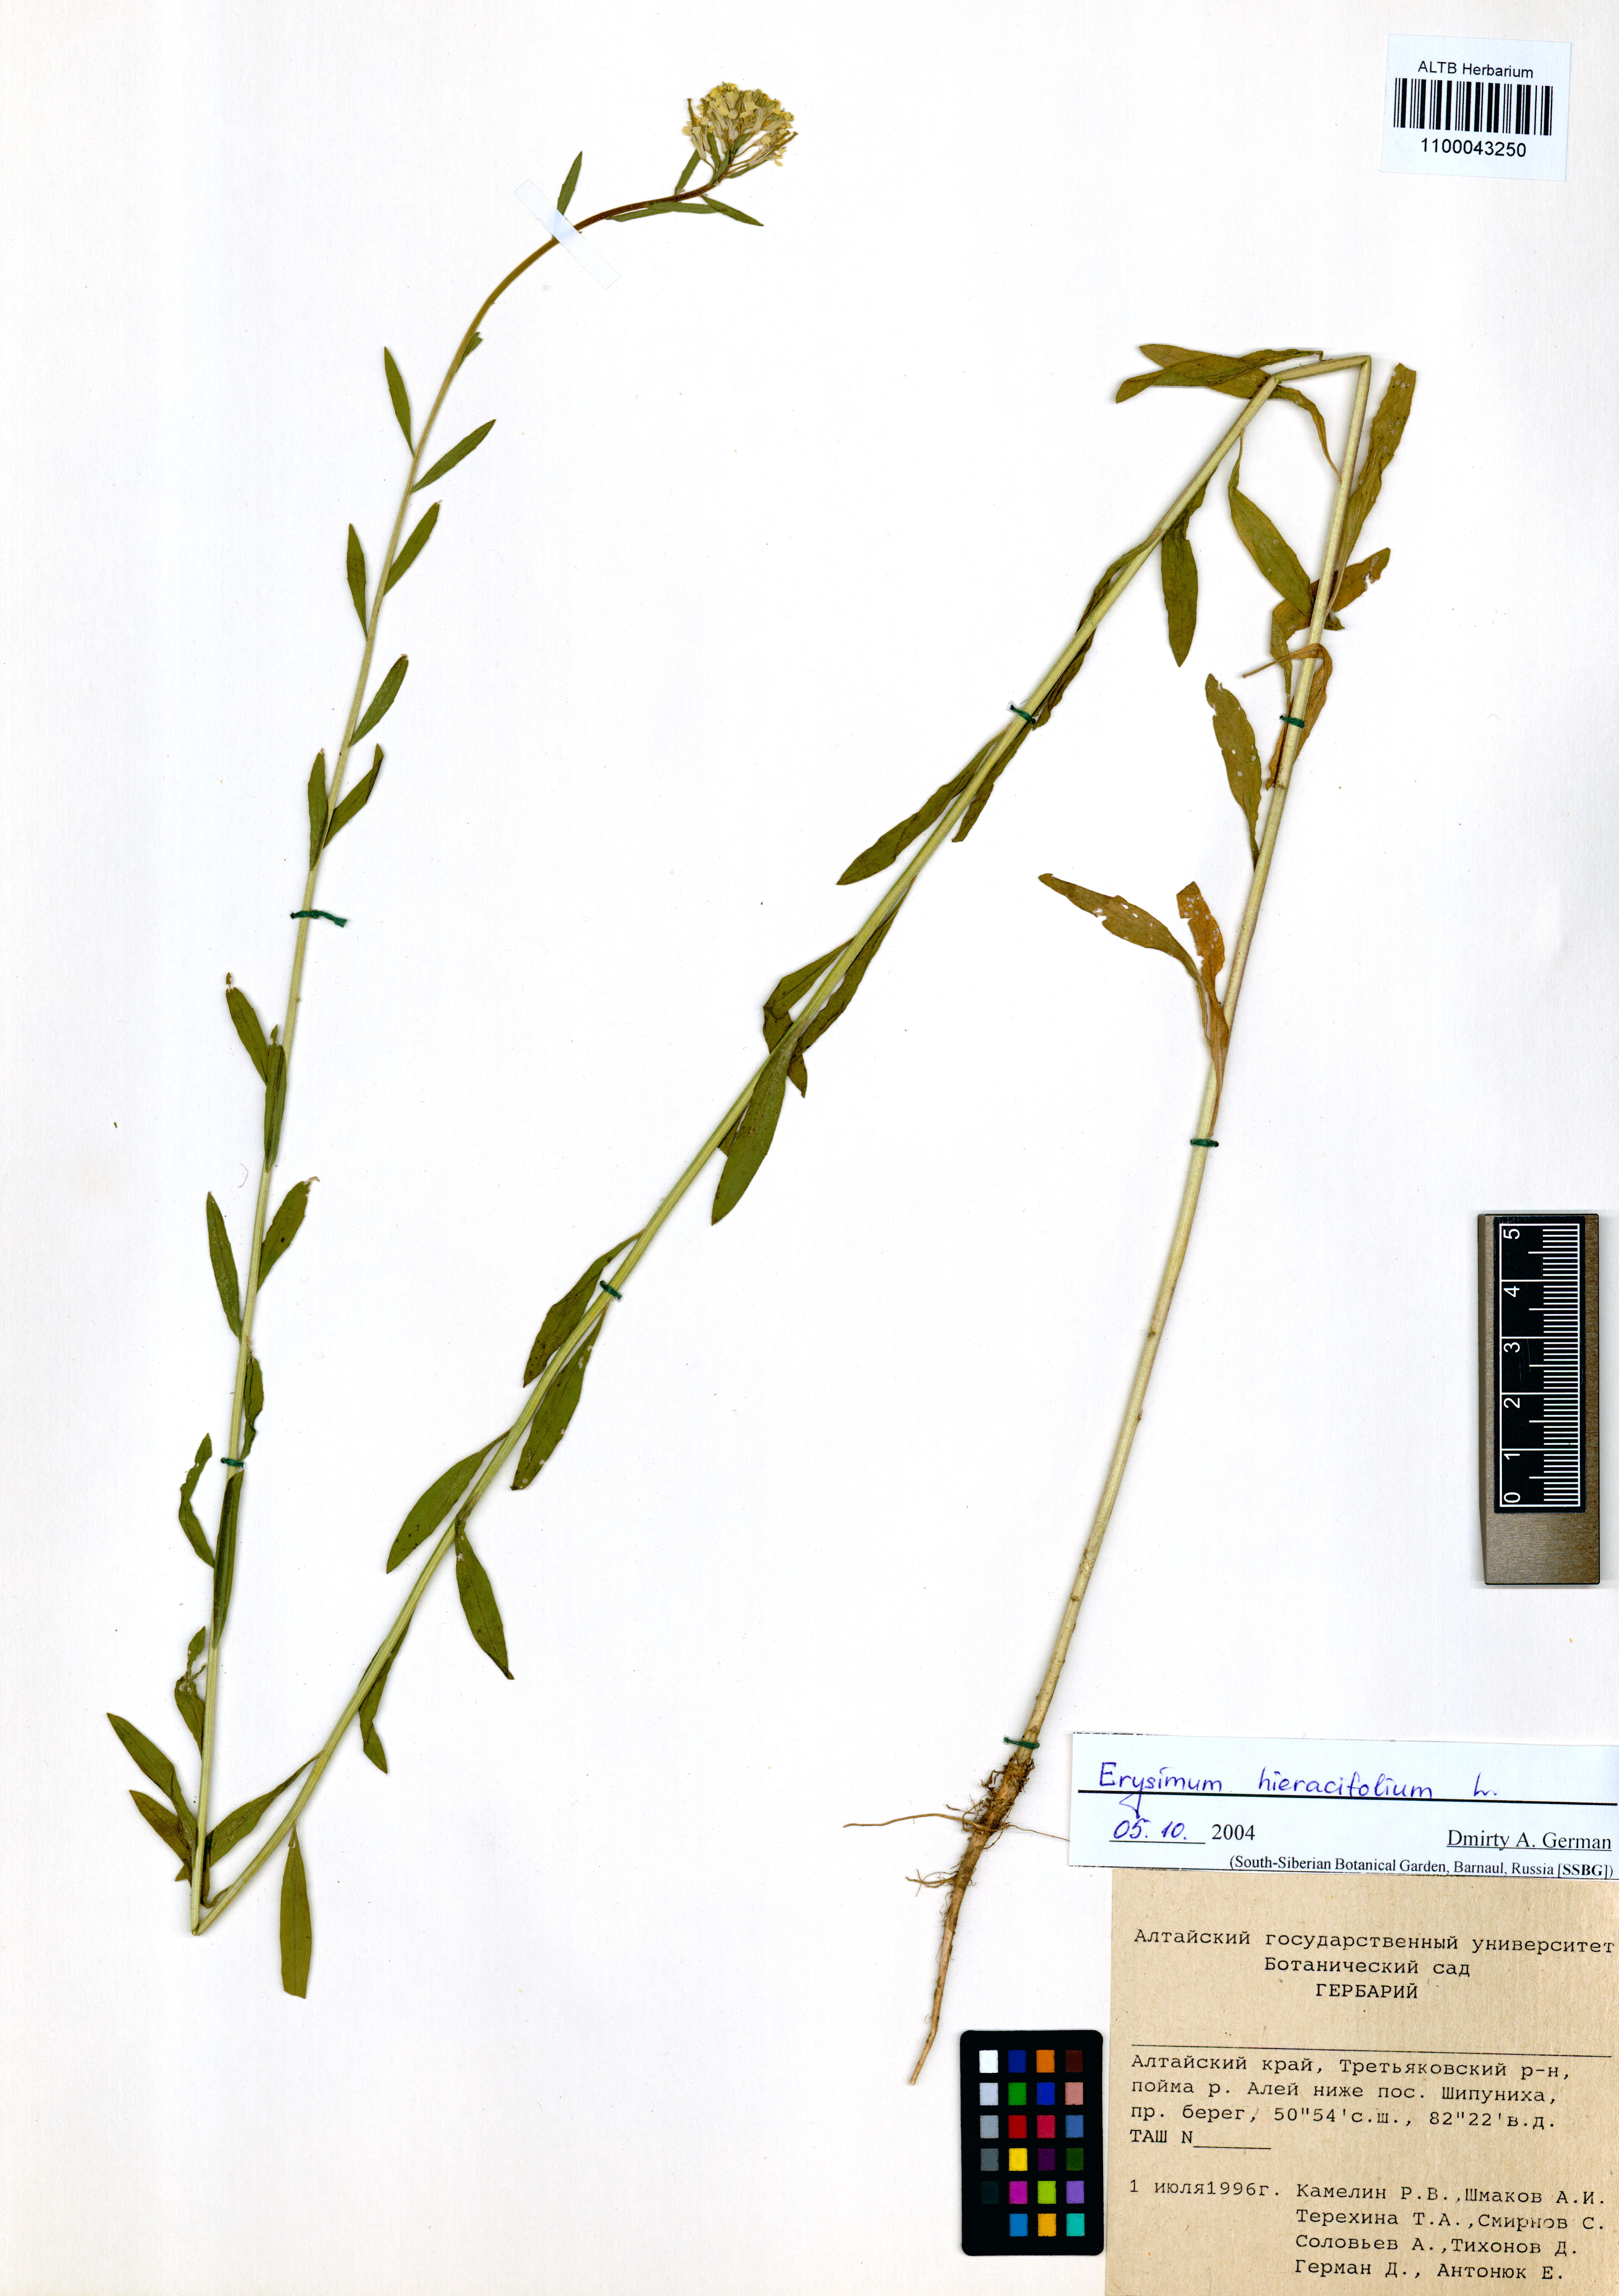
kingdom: Plantae
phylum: Tracheophyta
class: Magnoliopsida
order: Brassicales
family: Brassicaceae
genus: Erysimum
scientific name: Erysimum hieraciifolium
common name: European wallflower
